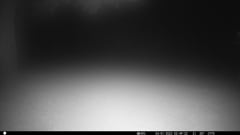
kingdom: Animalia
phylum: Chordata
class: Aves
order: Charadriiformes
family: Scolopacidae
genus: Scolopax
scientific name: Scolopax rusticola
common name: Eurasian woodcock
